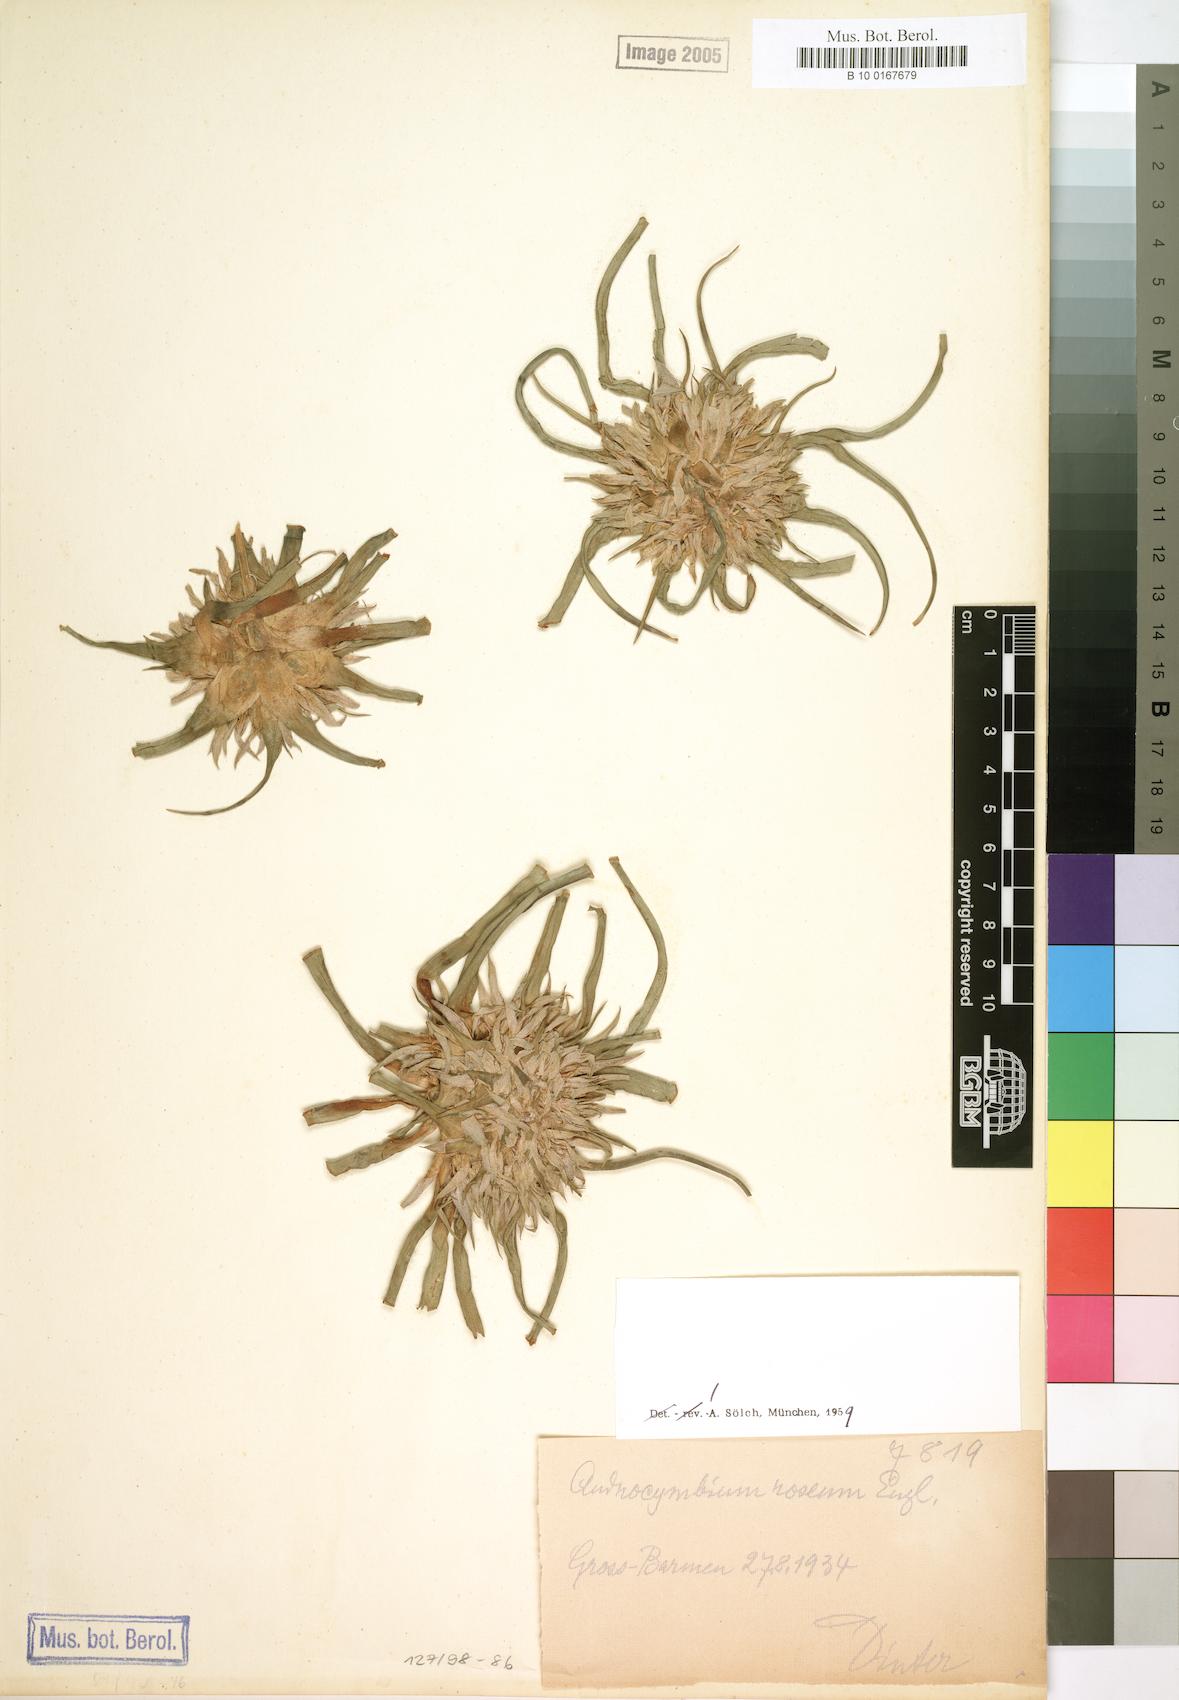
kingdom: Plantae
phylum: Tracheophyta
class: Liliopsida
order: Liliales
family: Colchicaceae
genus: Colchicum
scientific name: Colchicum roseum
